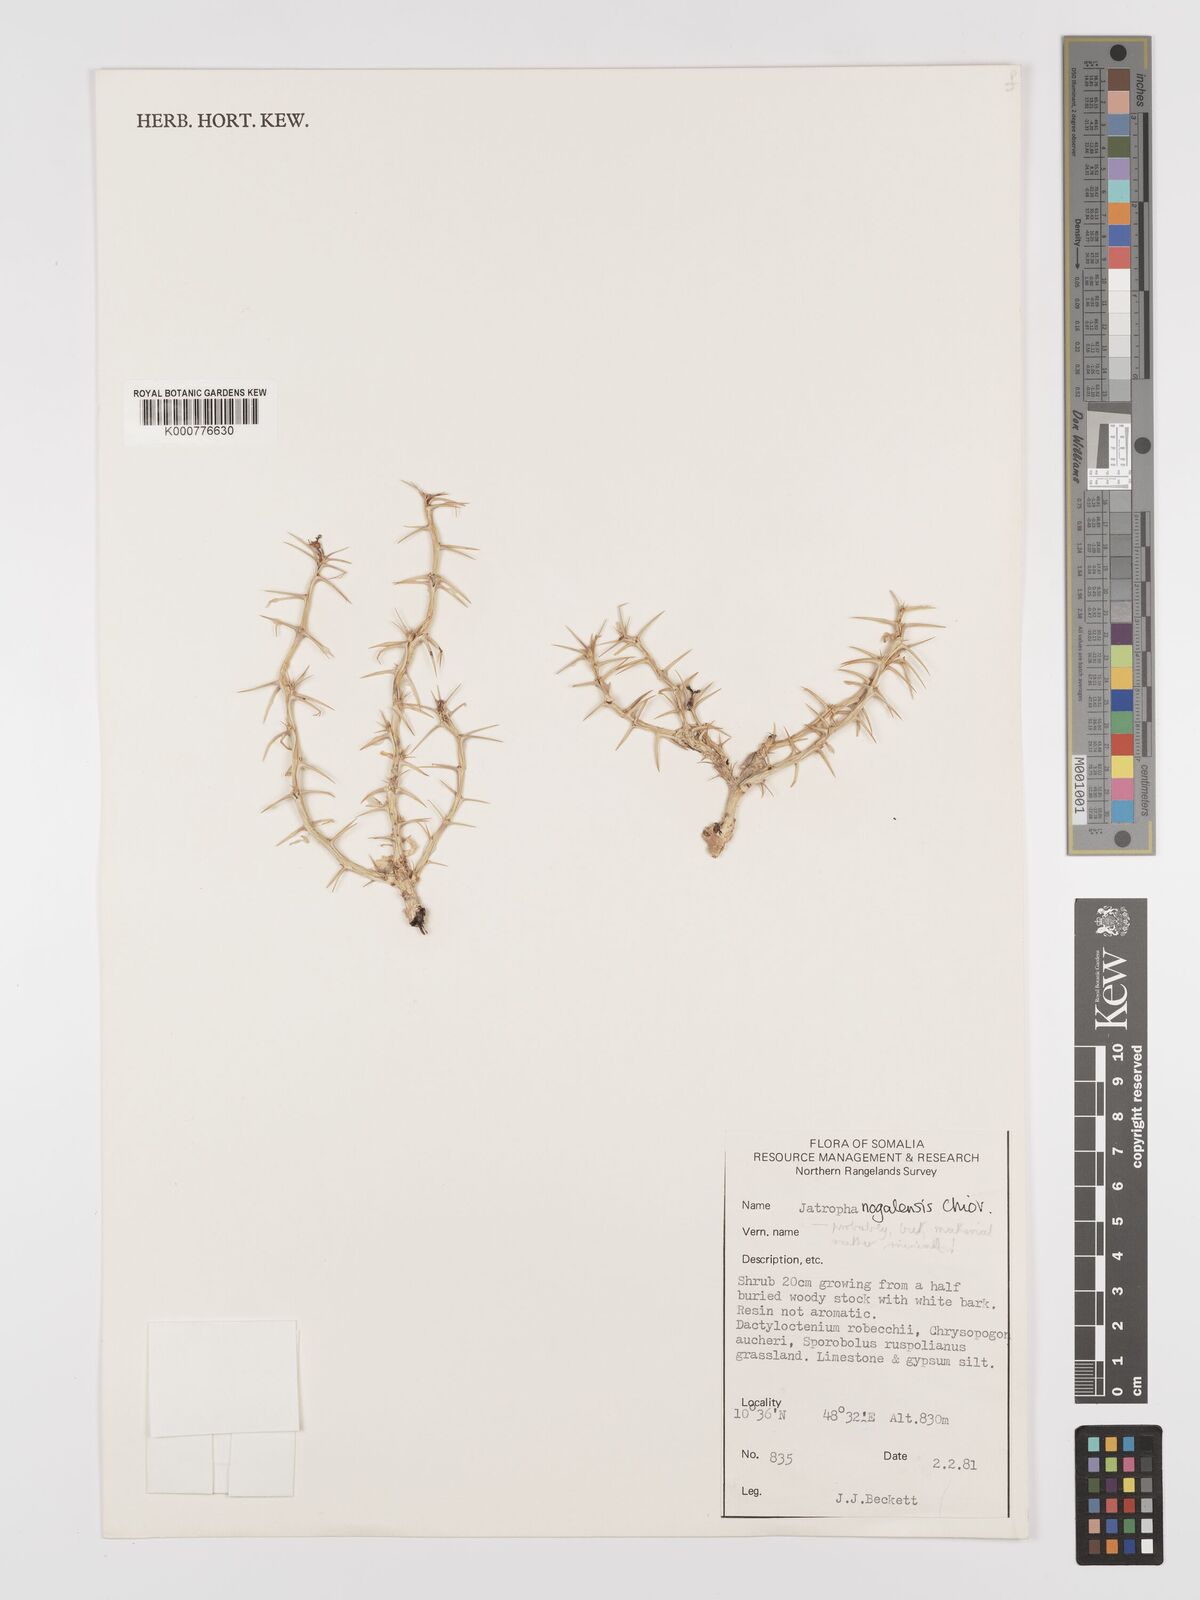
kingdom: Plantae
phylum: Tracheophyta
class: Magnoliopsida
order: Malpighiales
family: Euphorbiaceae
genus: Jatropha
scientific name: Jatropha nogalensis
